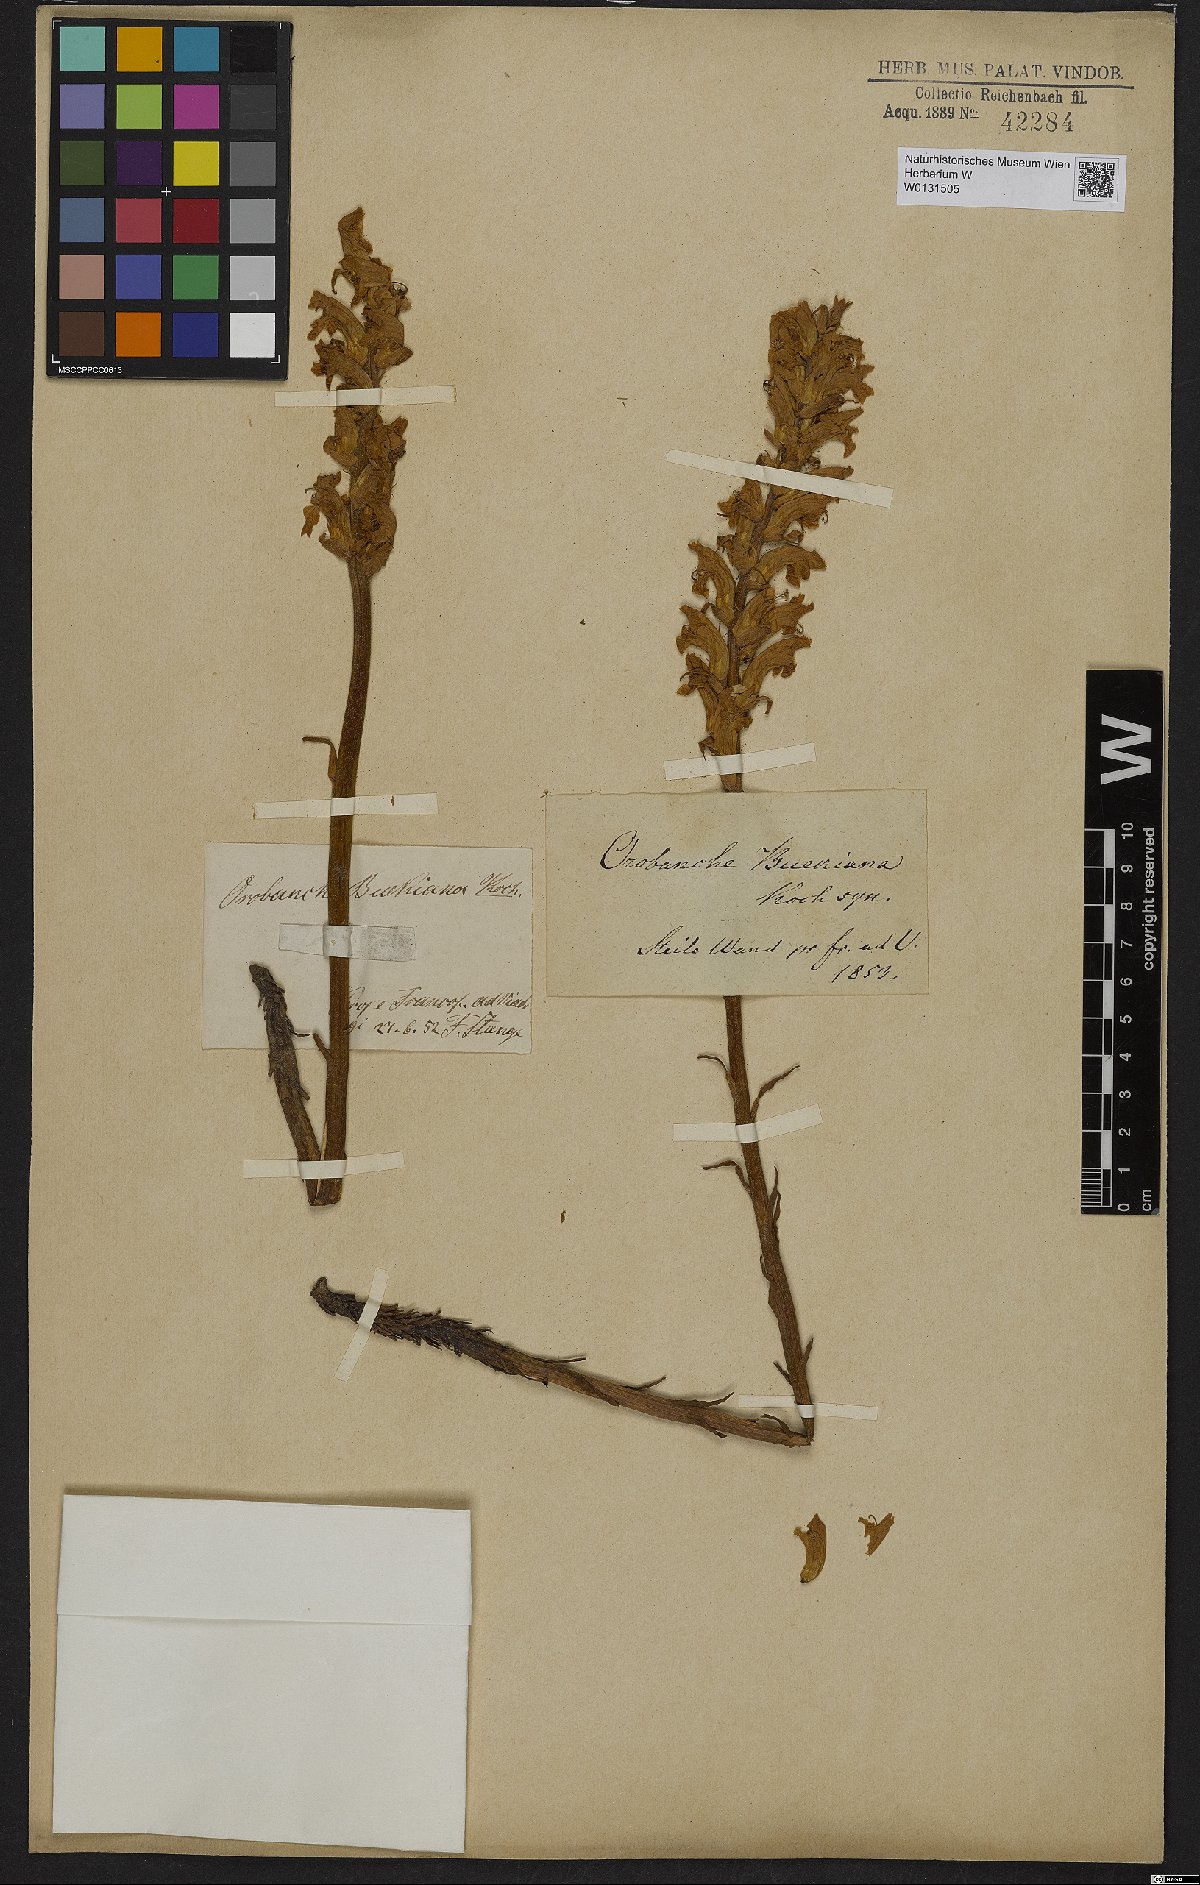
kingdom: Plantae
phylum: Tracheophyta
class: Magnoliopsida
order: Lamiales
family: Orobanchaceae
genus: Orobanche
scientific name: Orobanche lutea
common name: Yellow broomrape
